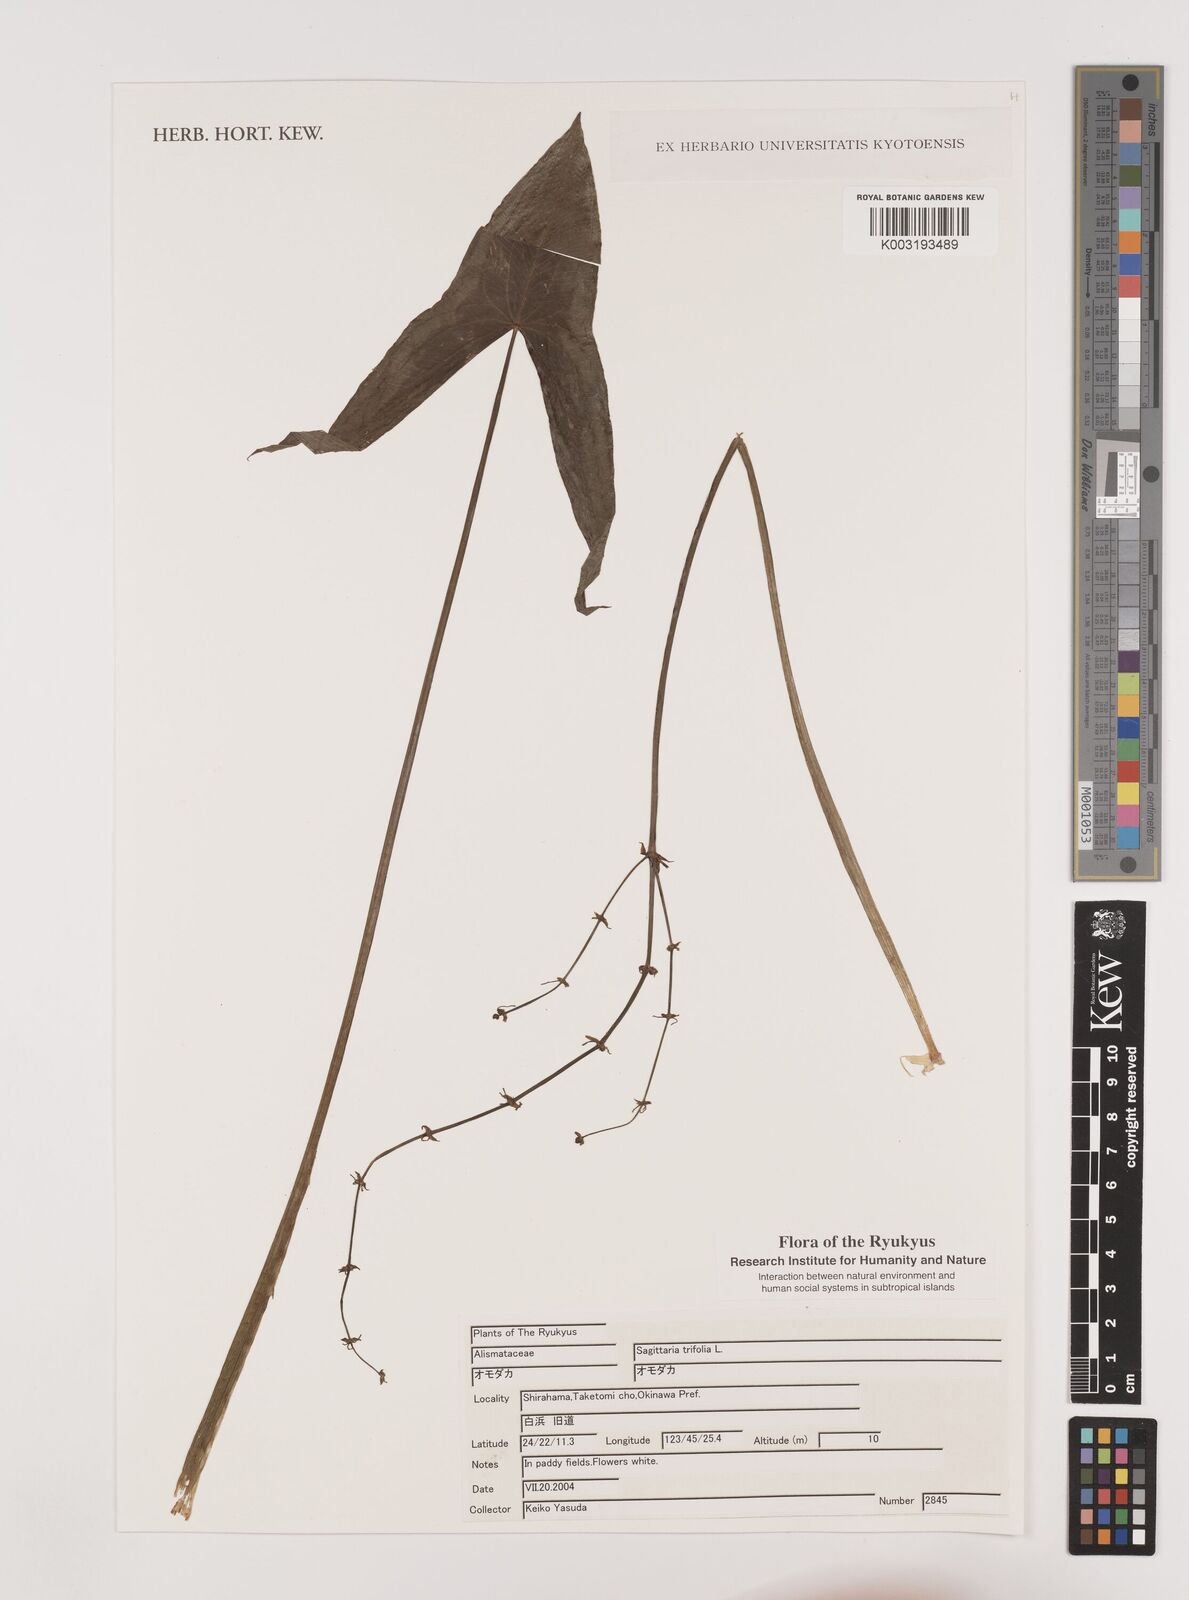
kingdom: Plantae
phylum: Tracheophyta
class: Liliopsida
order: Alismatales
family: Alismataceae
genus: Sagittaria
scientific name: Sagittaria sagittifolia
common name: Arrowhead
